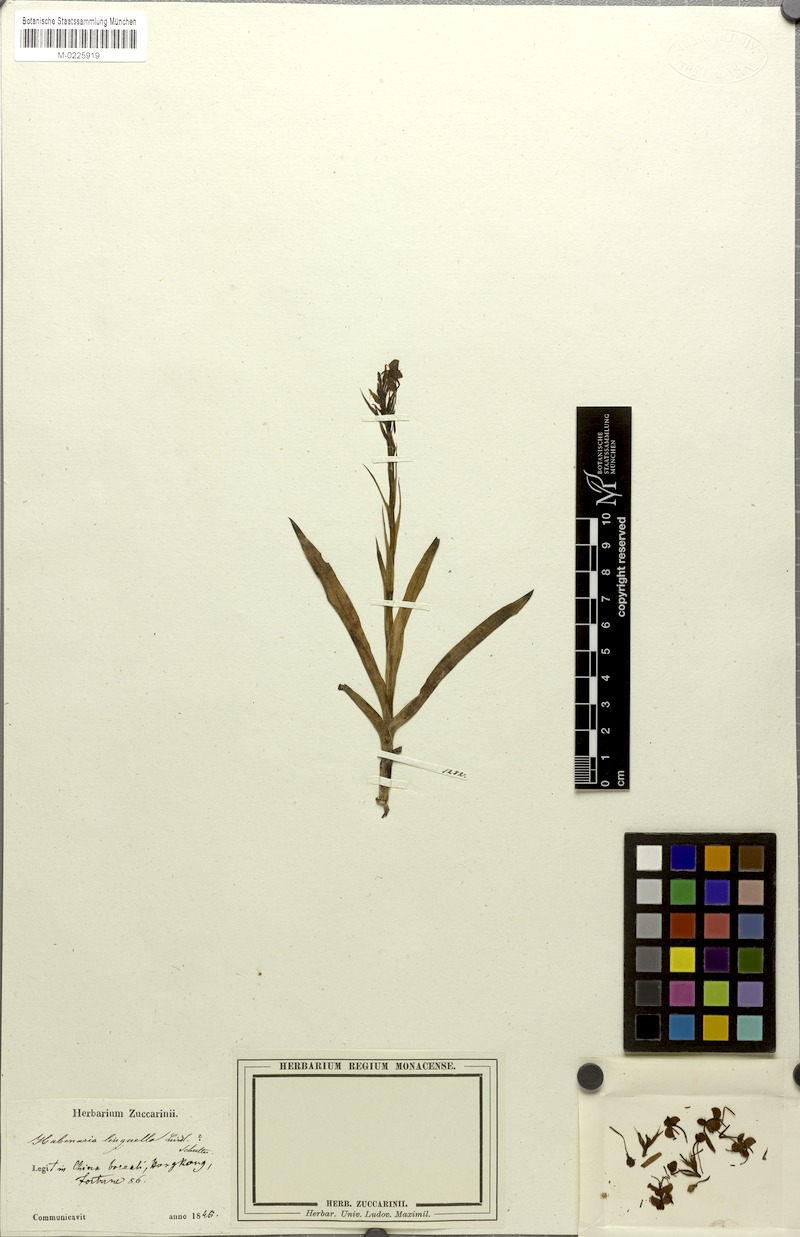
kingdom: Plantae
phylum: Tracheophyta
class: Liliopsida
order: Asparagales
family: Orchidaceae
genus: Habenaria
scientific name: Habenaria linguella
